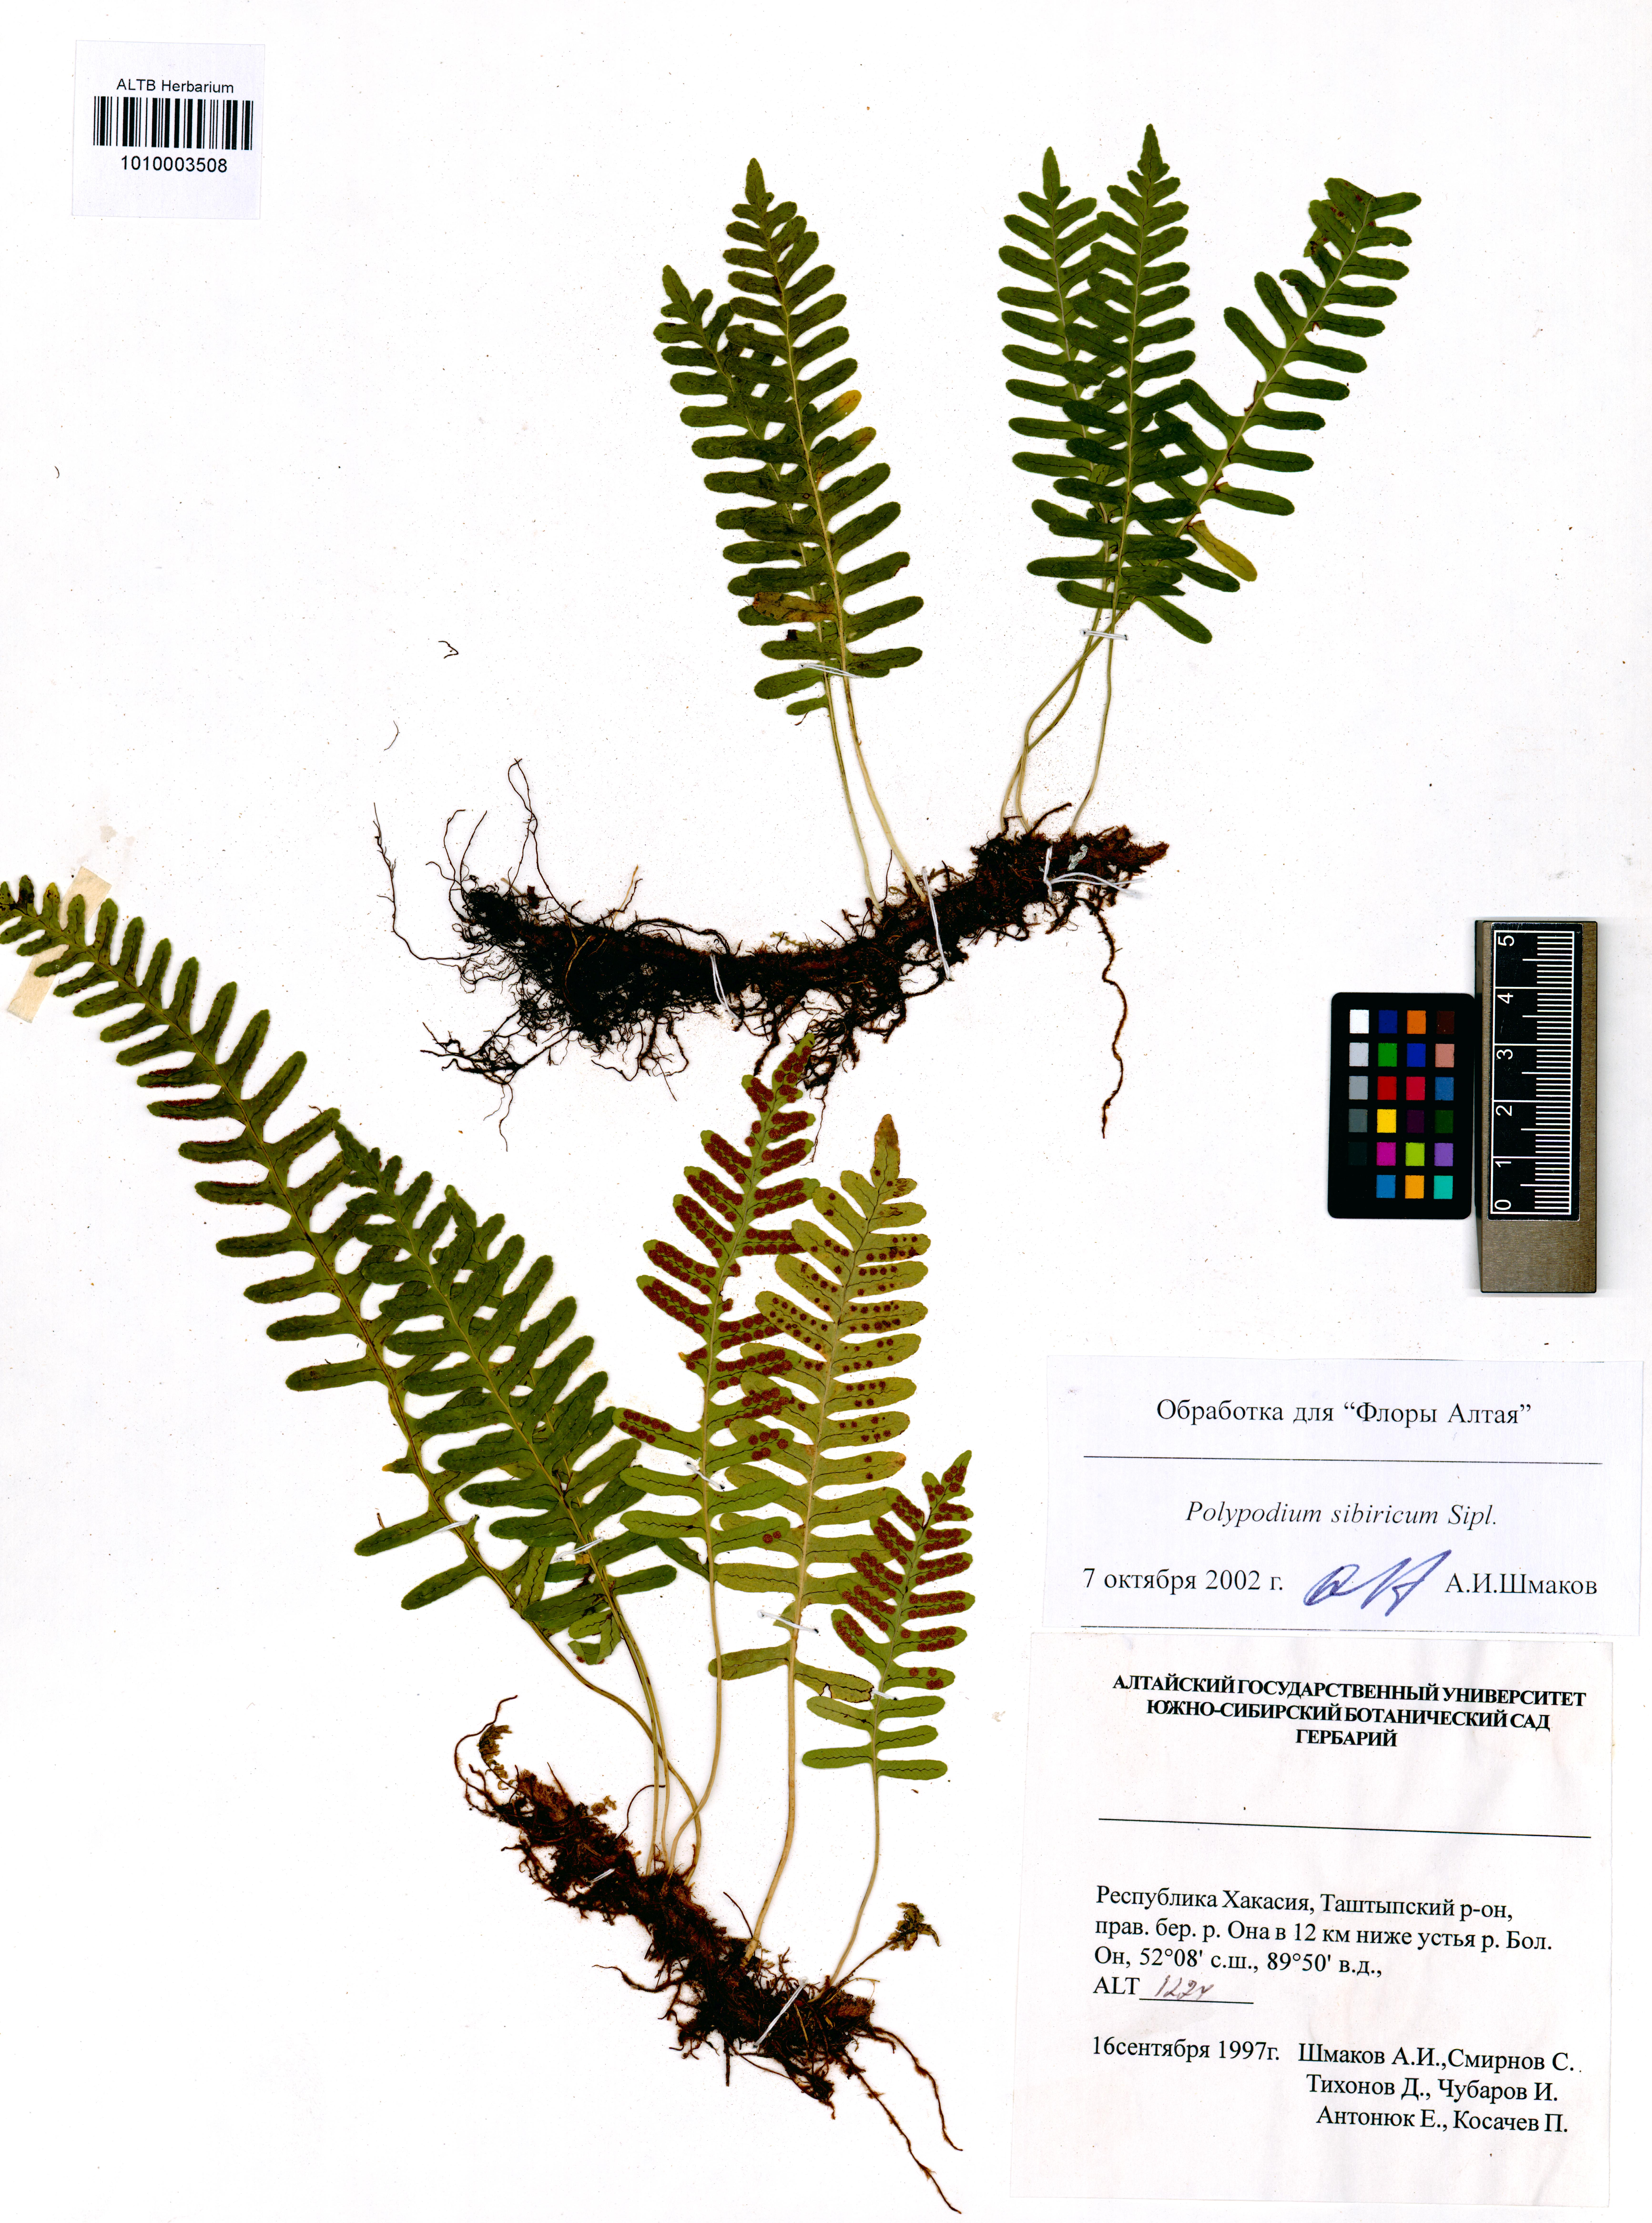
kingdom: Plantae
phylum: Tracheophyta
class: Polypodiopsida
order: Polypodiales
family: Polypodiaceae
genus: Polypodium
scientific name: Polypodium sibiricum
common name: Siberian polypody
